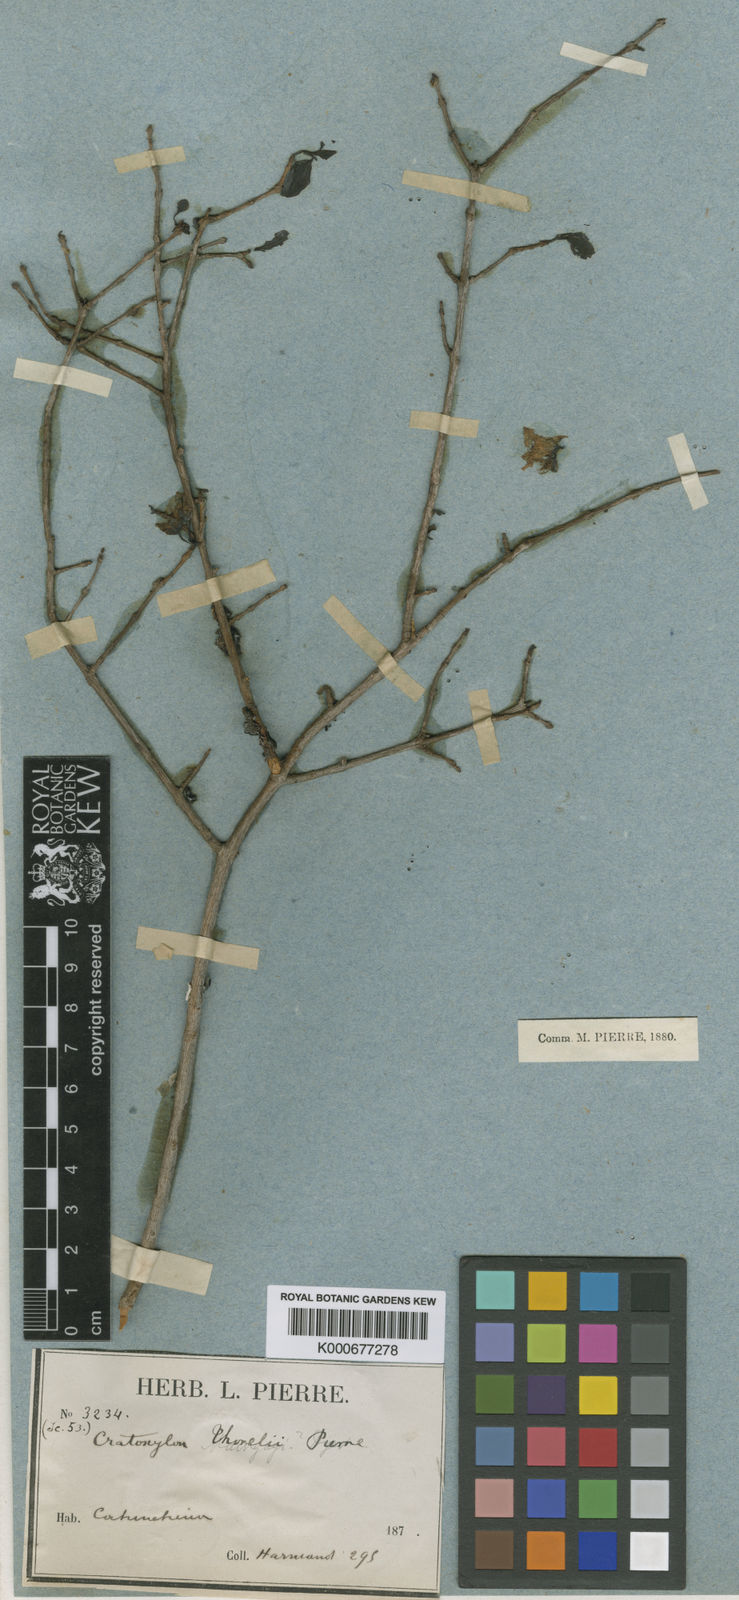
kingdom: Plantae
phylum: Tracheophyta
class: Magnoliopsida
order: Malpighiales
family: Hypericaceae
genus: Cratoxylum
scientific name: Cratoxylum formosum
